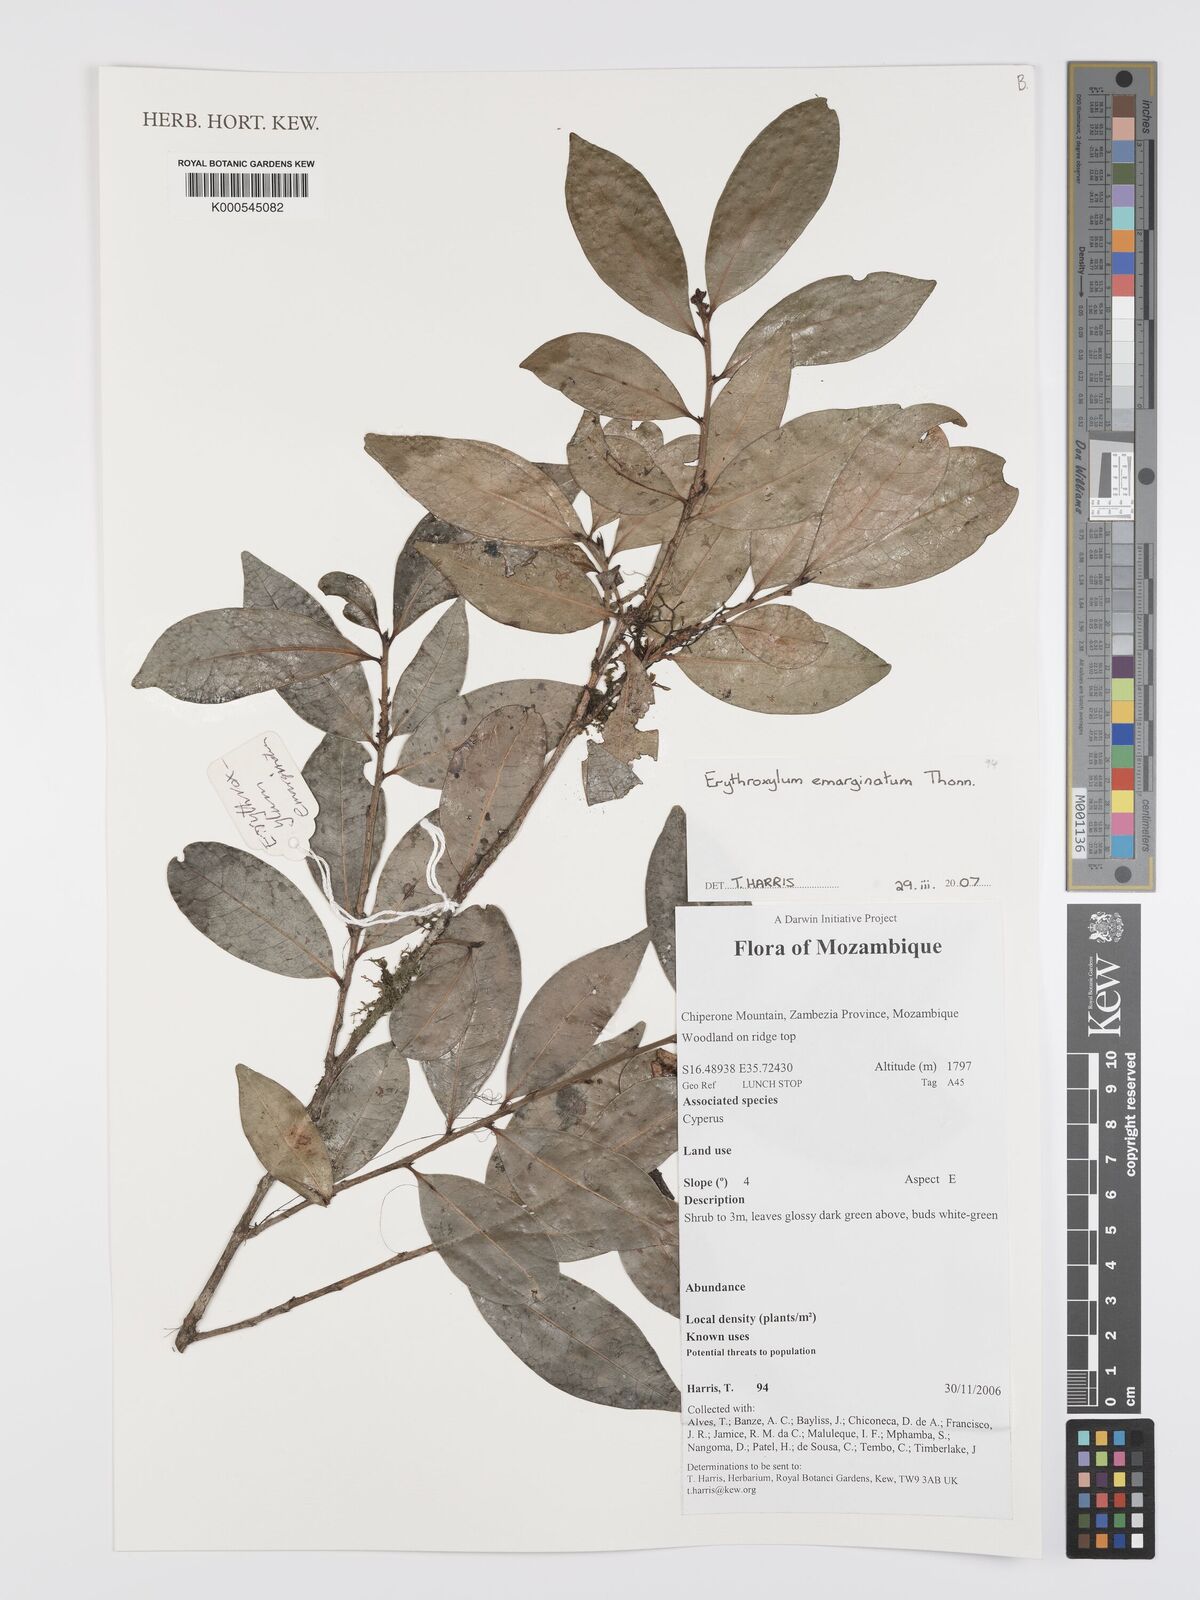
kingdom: Plantae
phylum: Tracheophyta
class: Magnoliopsida
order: Malpighiales
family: Erythroxylaceae
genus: Erythroxylum
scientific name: Erythroxylum emarginatum
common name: African coca-tree
